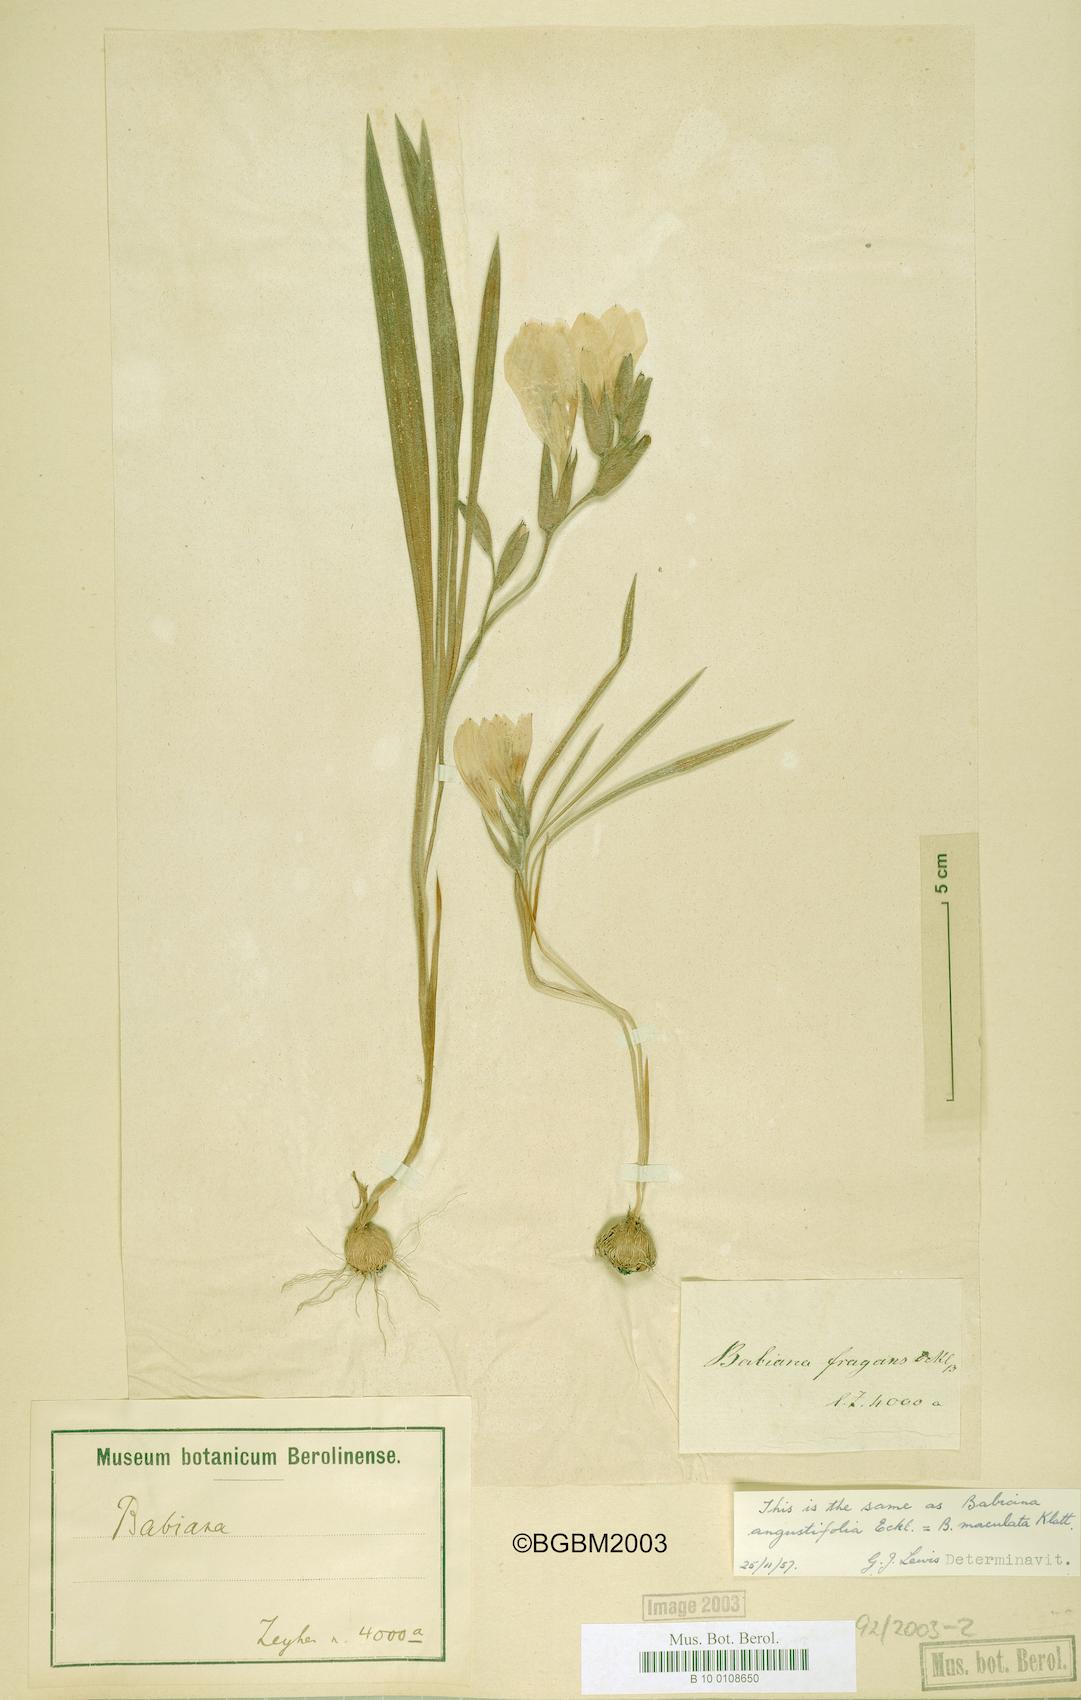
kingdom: Plantae
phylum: Tracheophyta
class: Liliopsida
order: Asparagales
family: Iridaceae
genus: Babiana
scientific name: Babiana nana
